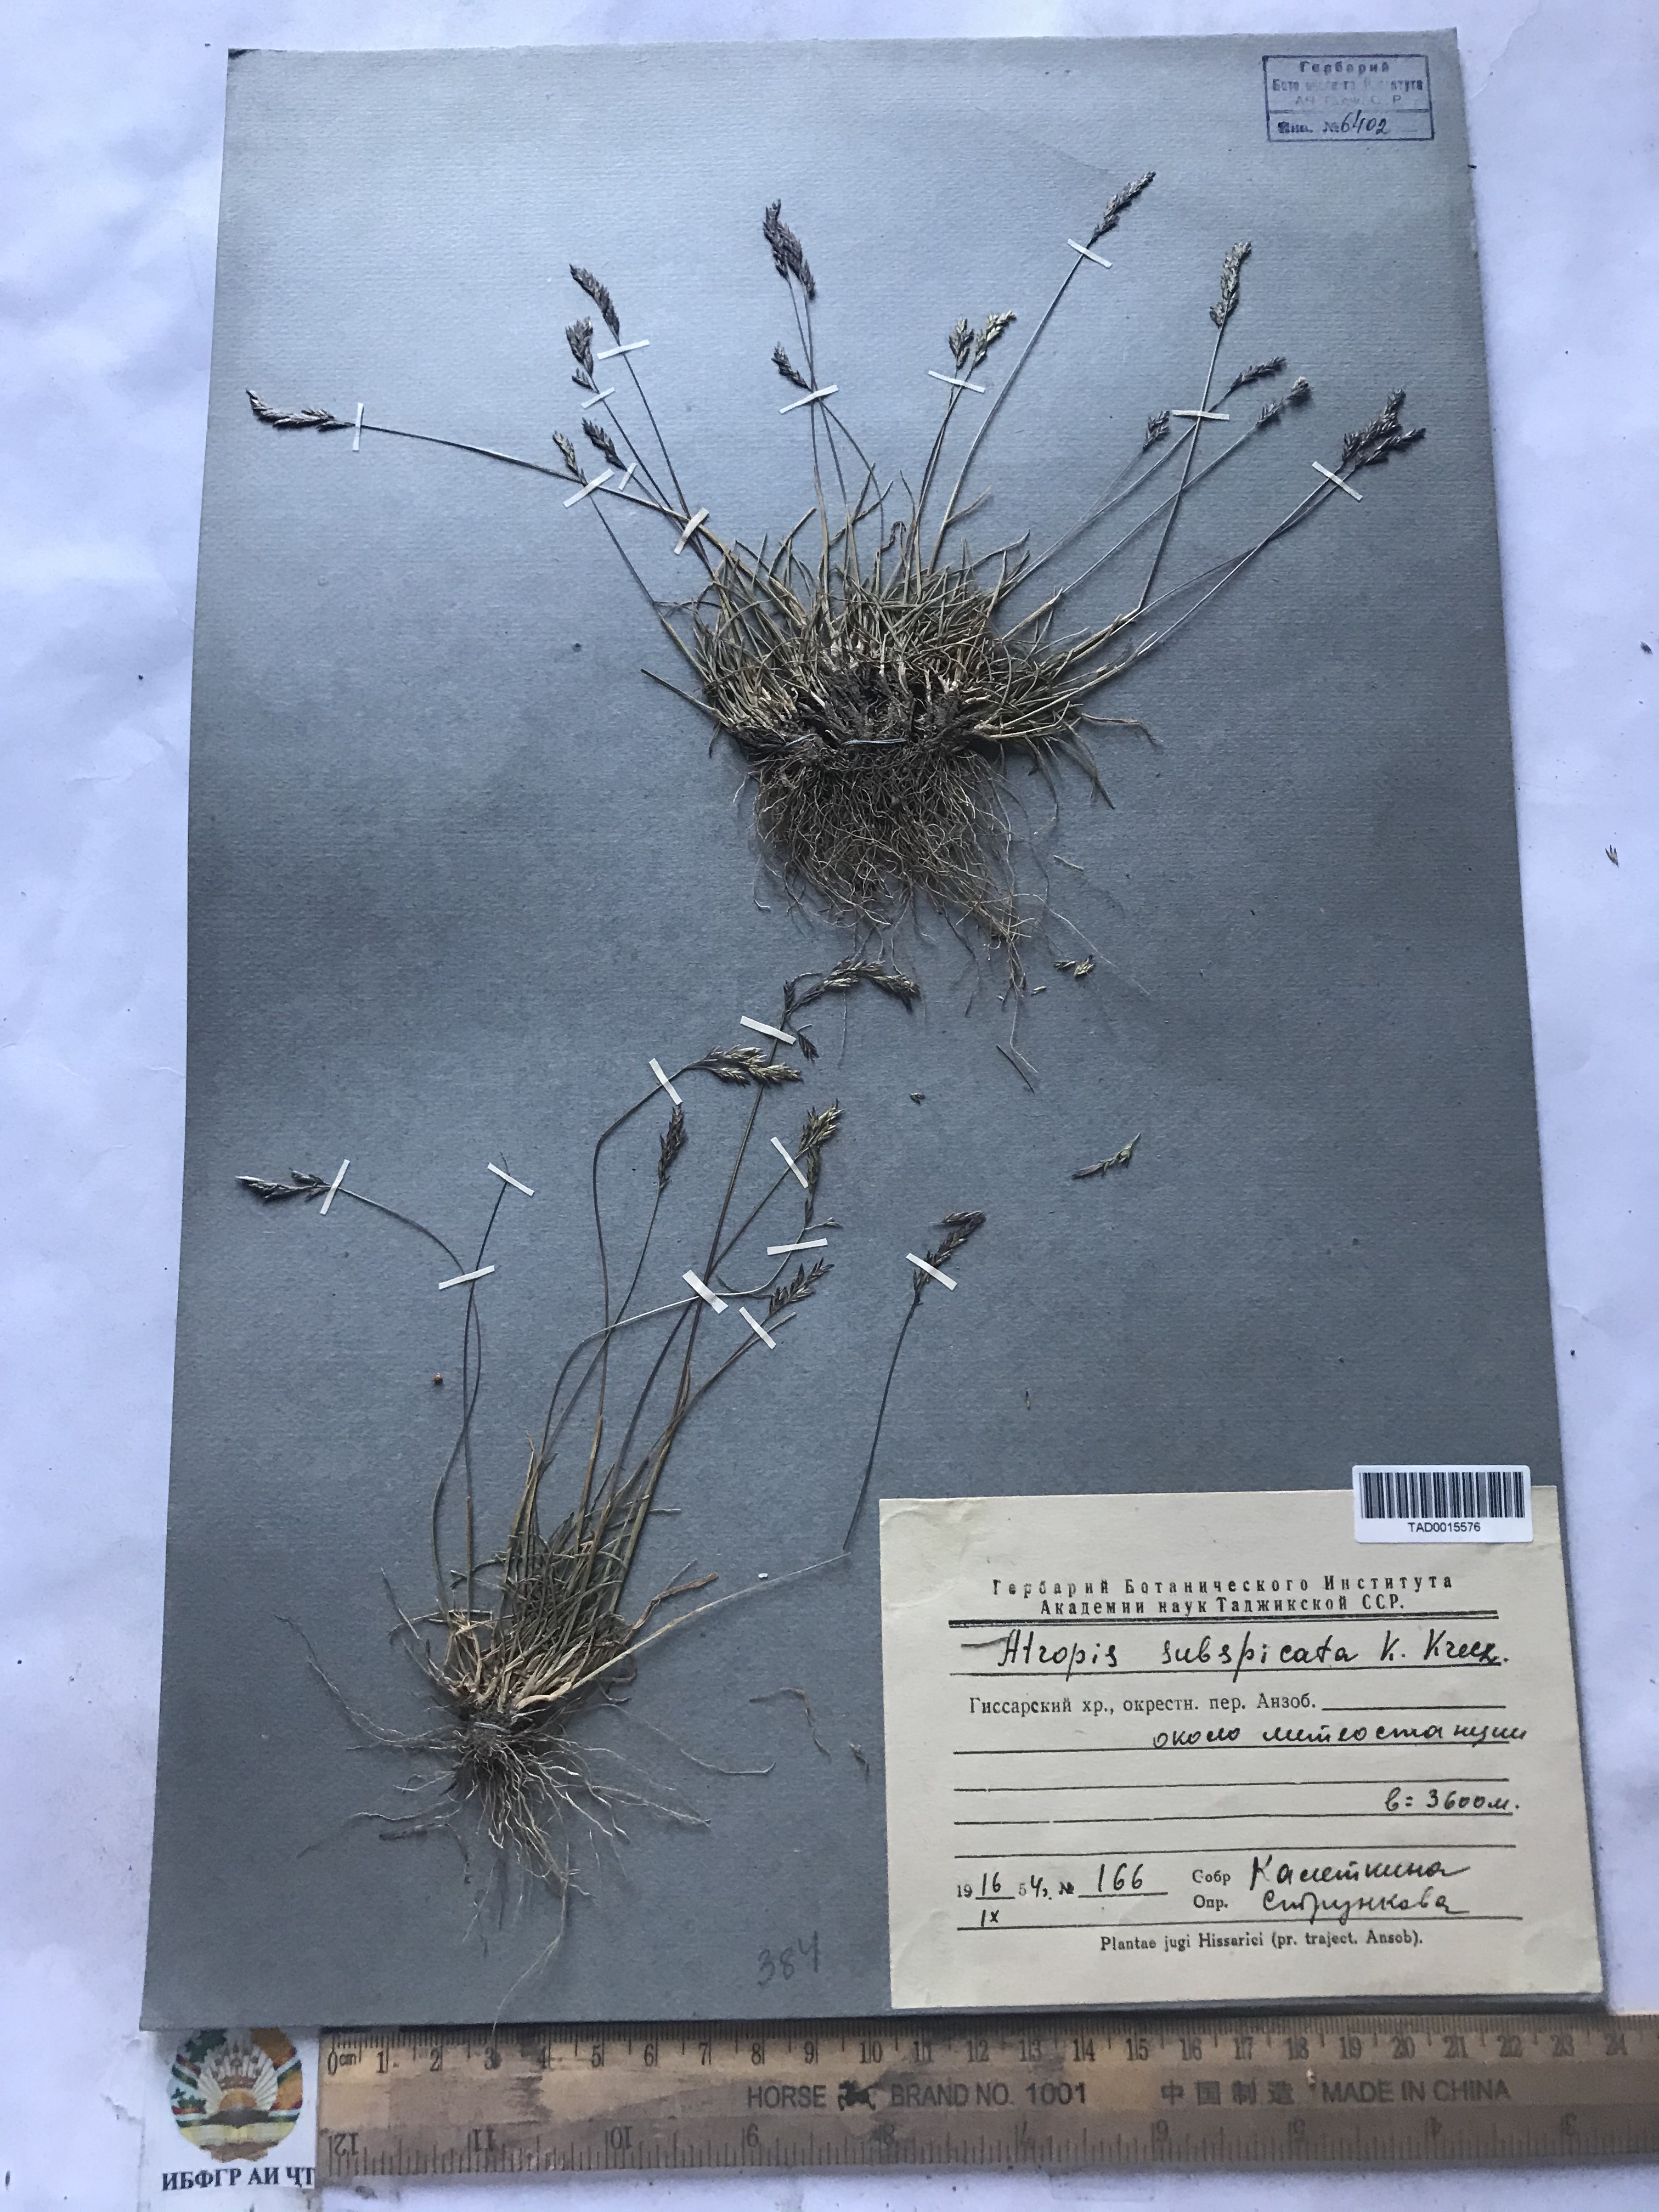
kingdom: Plantae
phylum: Tracheophyta
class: Liliopsida
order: Poales
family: Poaceae
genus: Puccinellia
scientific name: Puccinellia subspicata
